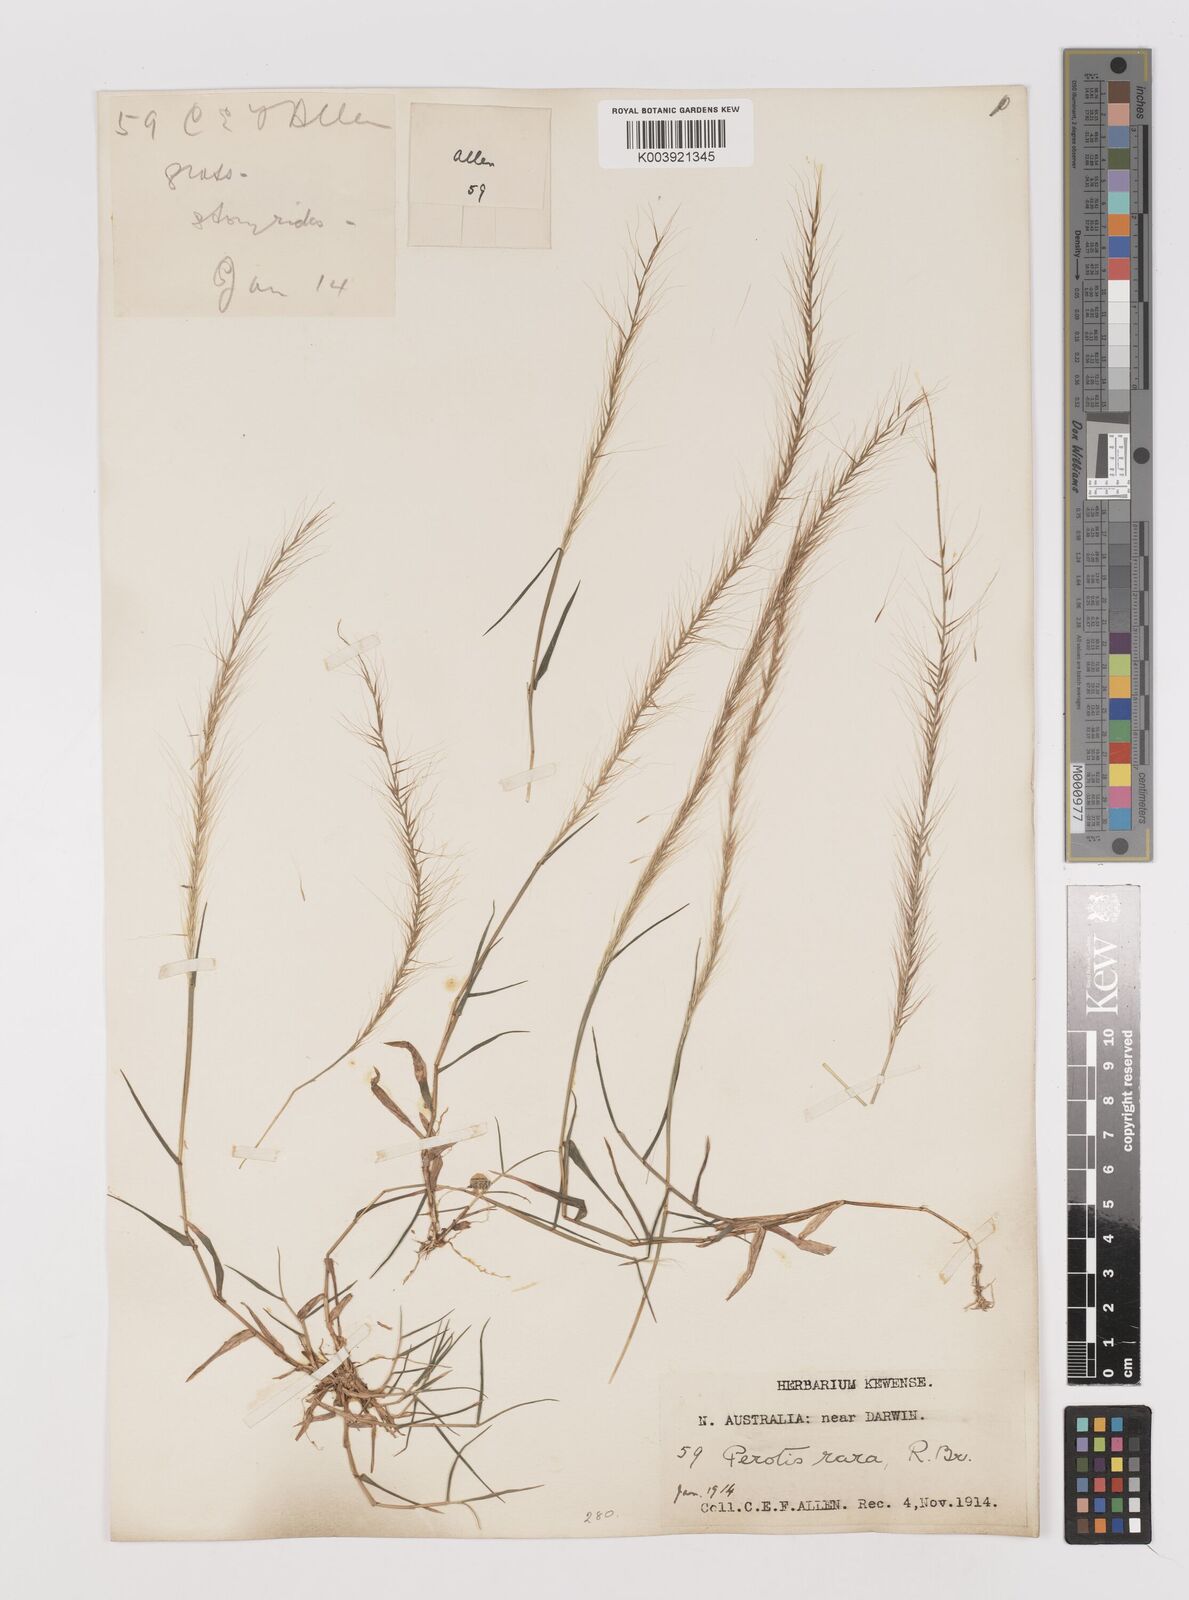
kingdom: Plantae
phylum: Tracheophyta
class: Liliopsida
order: Poales
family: Poaceae
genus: Perotis
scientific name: Perotis rara
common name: Comet grass
